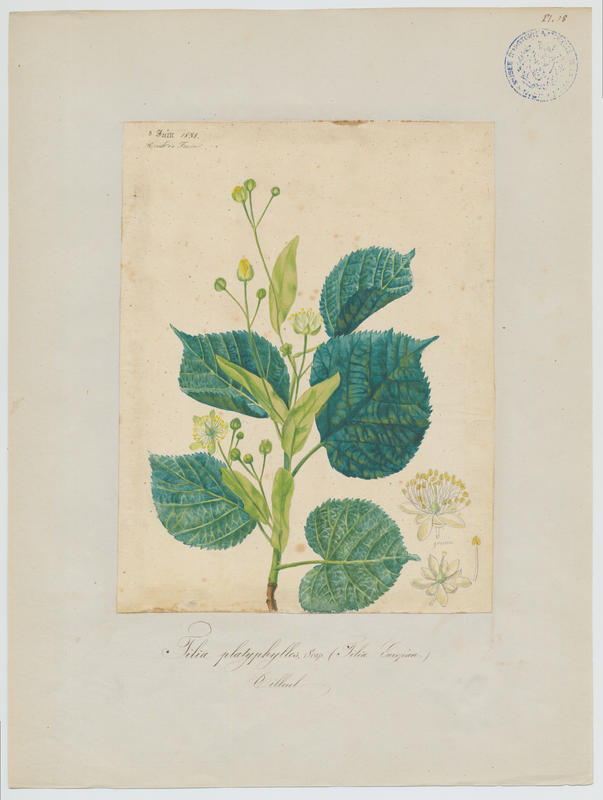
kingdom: Plantae
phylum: Tracheophyta
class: Magnoliopsida
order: Malvales
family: Malvaceae
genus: Tilia
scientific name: Tilia platyphyllos
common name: Large-leaved lime
